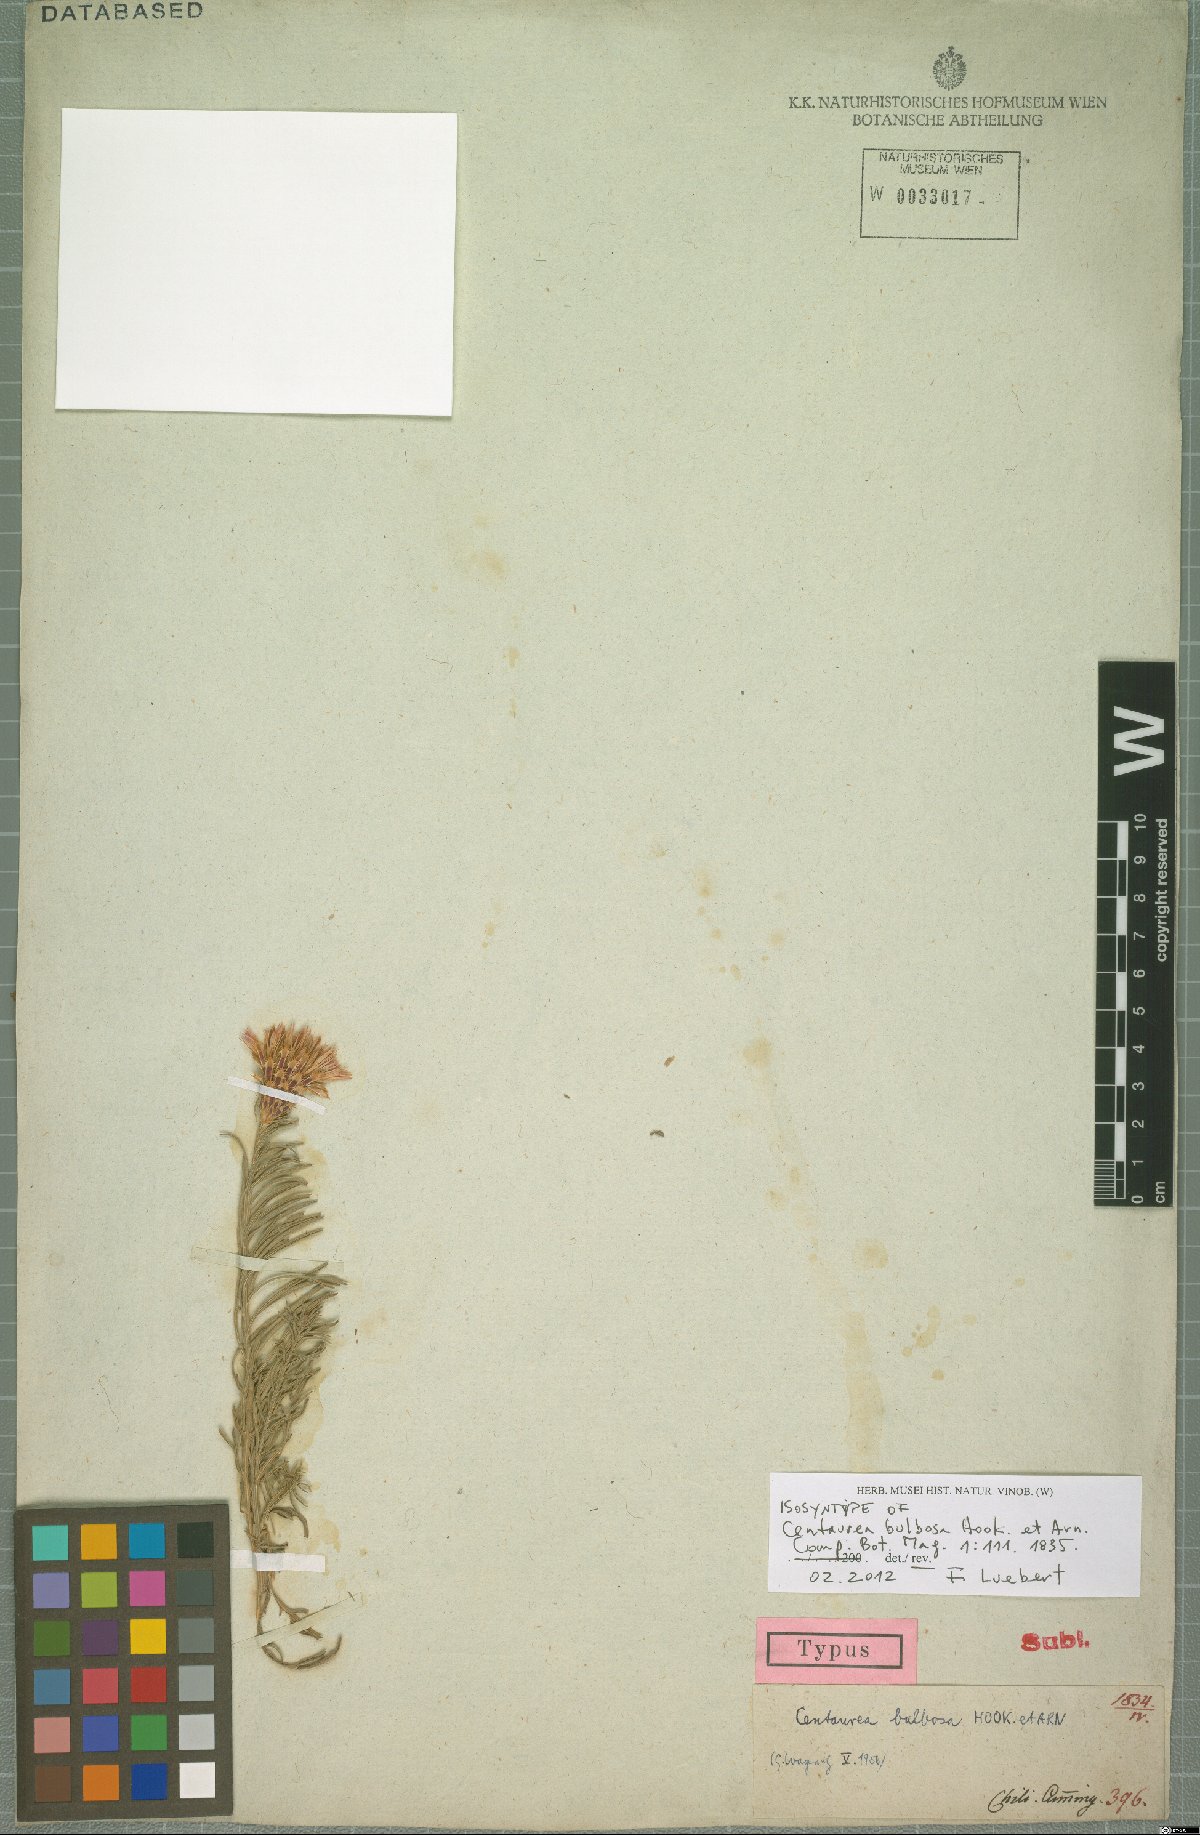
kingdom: Plantae
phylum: Tracheophyta
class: Magnoliopsida
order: Asterales
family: Asteraceae
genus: Plectocephalus
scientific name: Plectocephalus bulbosus
